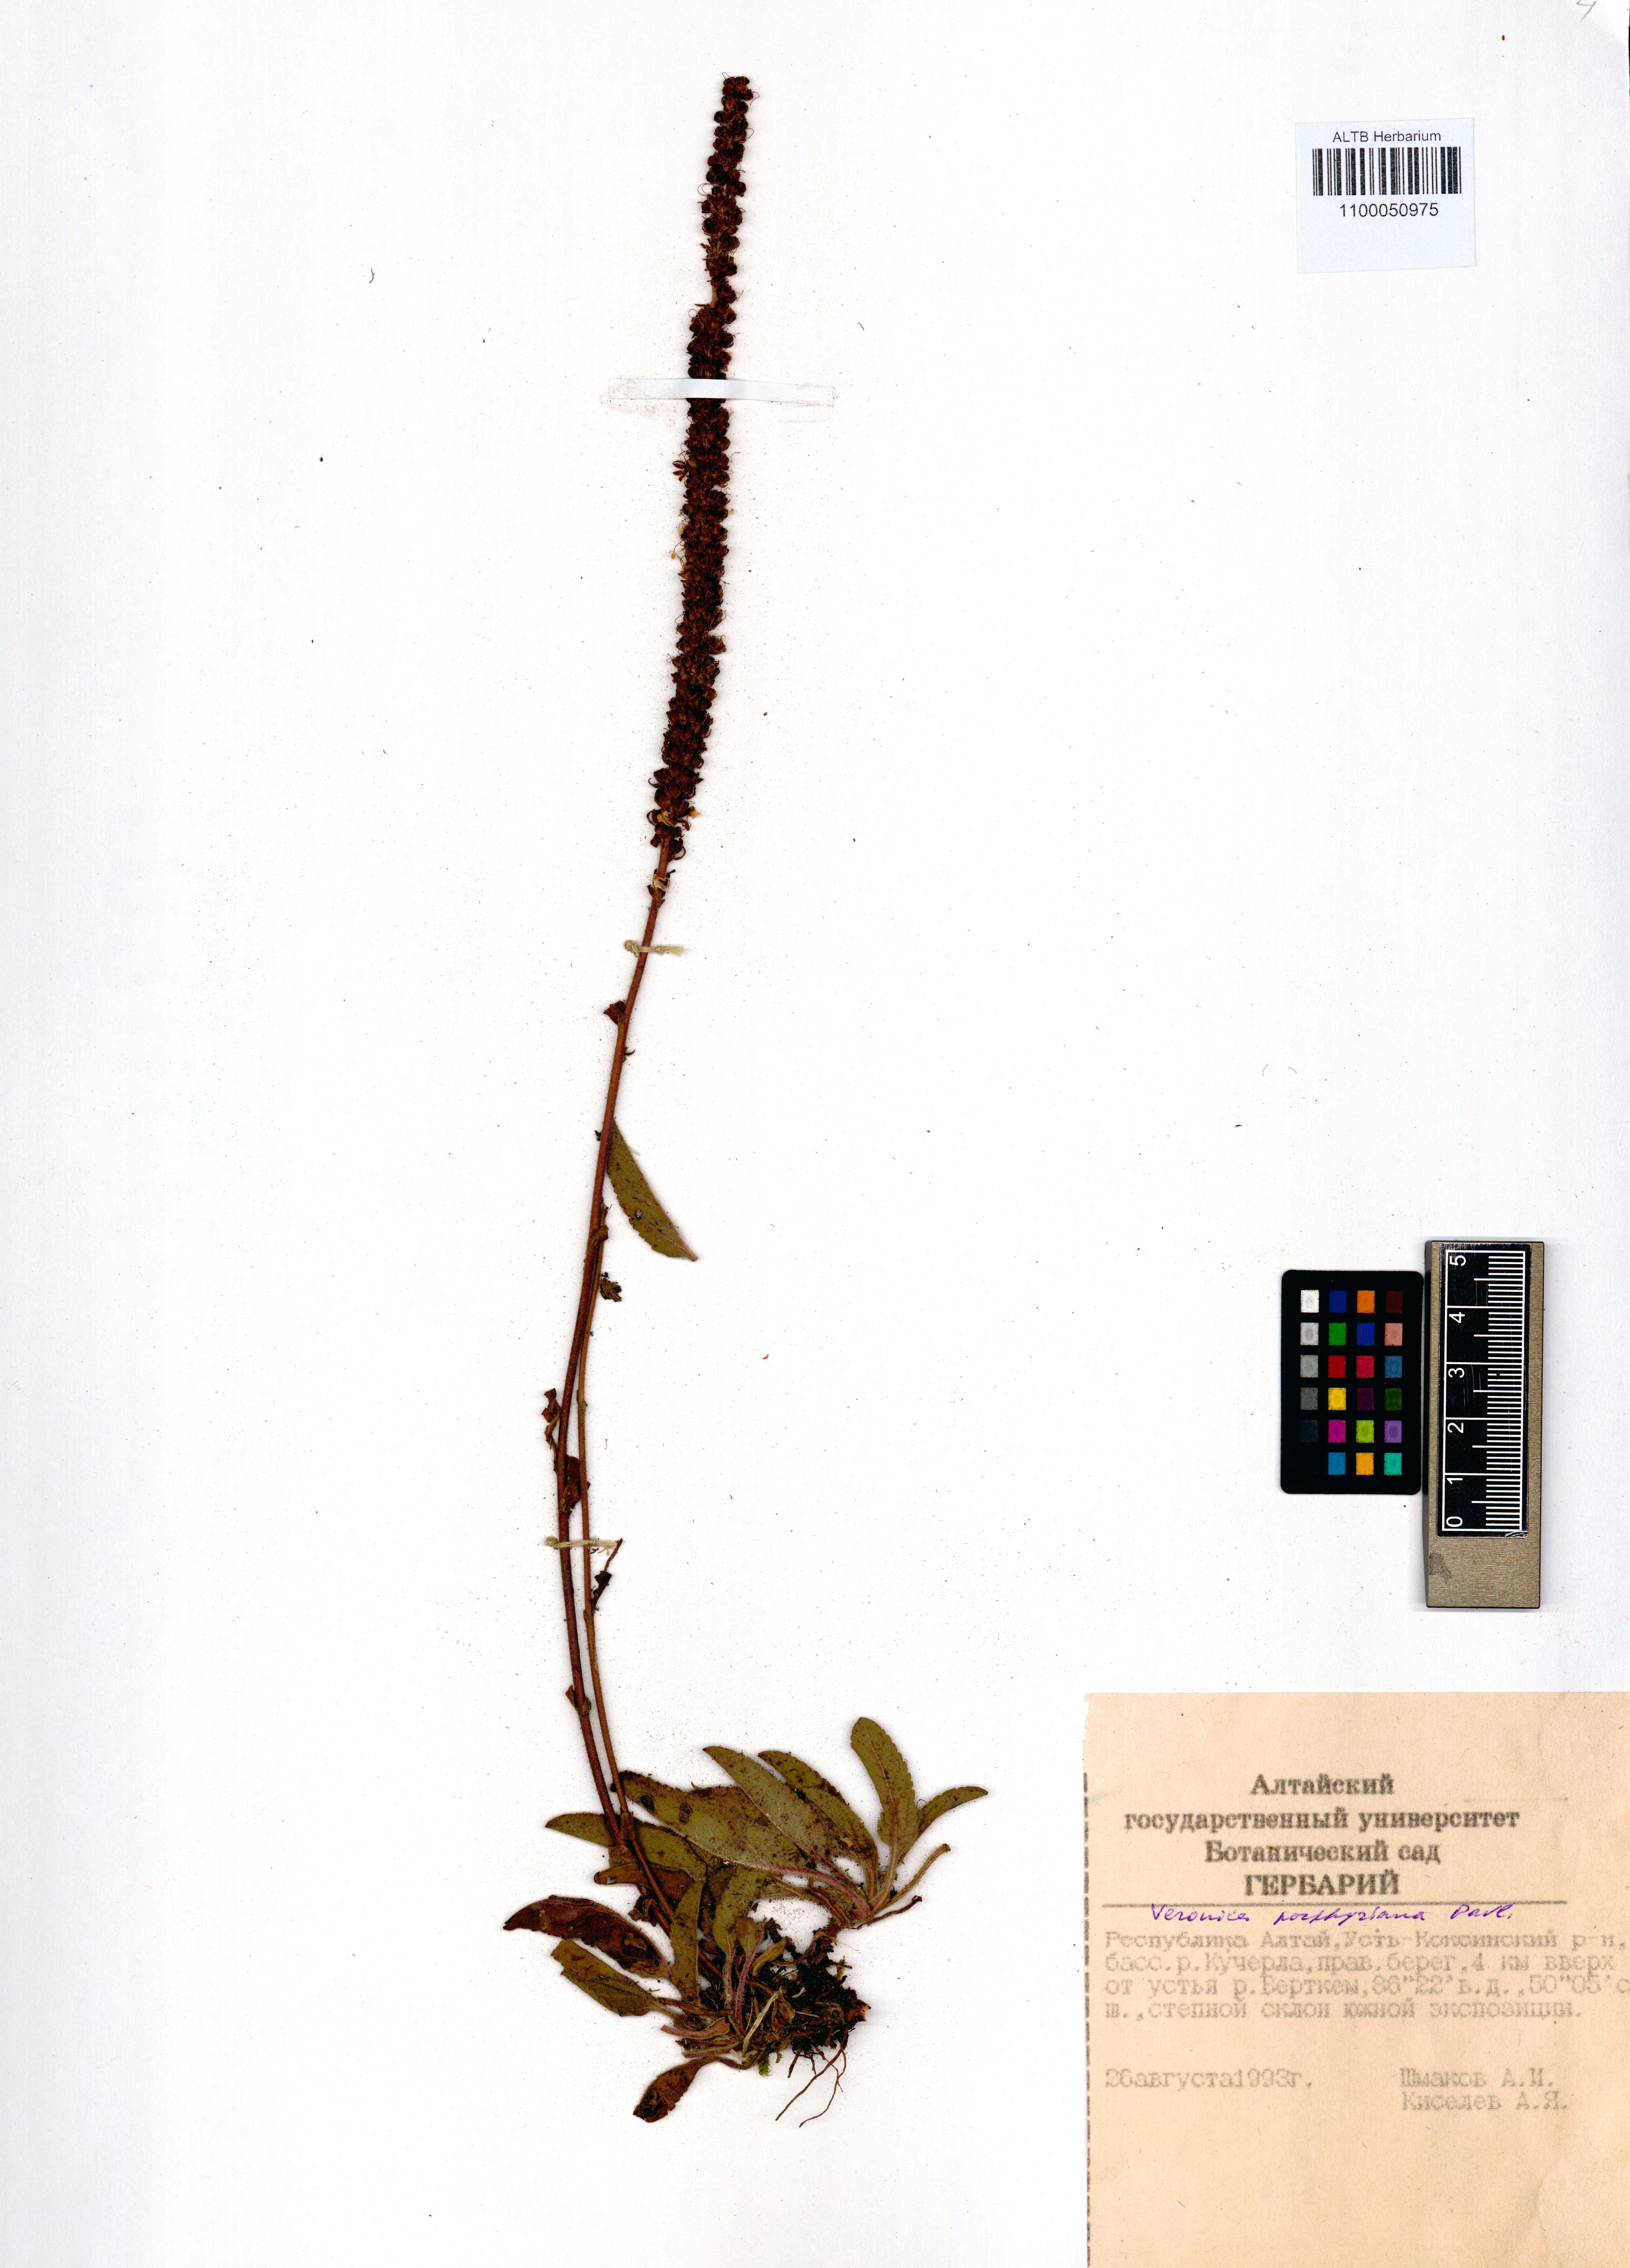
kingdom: Plantae
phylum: Tracheophyta
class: Magnoliopsida
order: Lamiales
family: Plantaginaceae
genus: Veronica
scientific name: Veronica porphyriana
